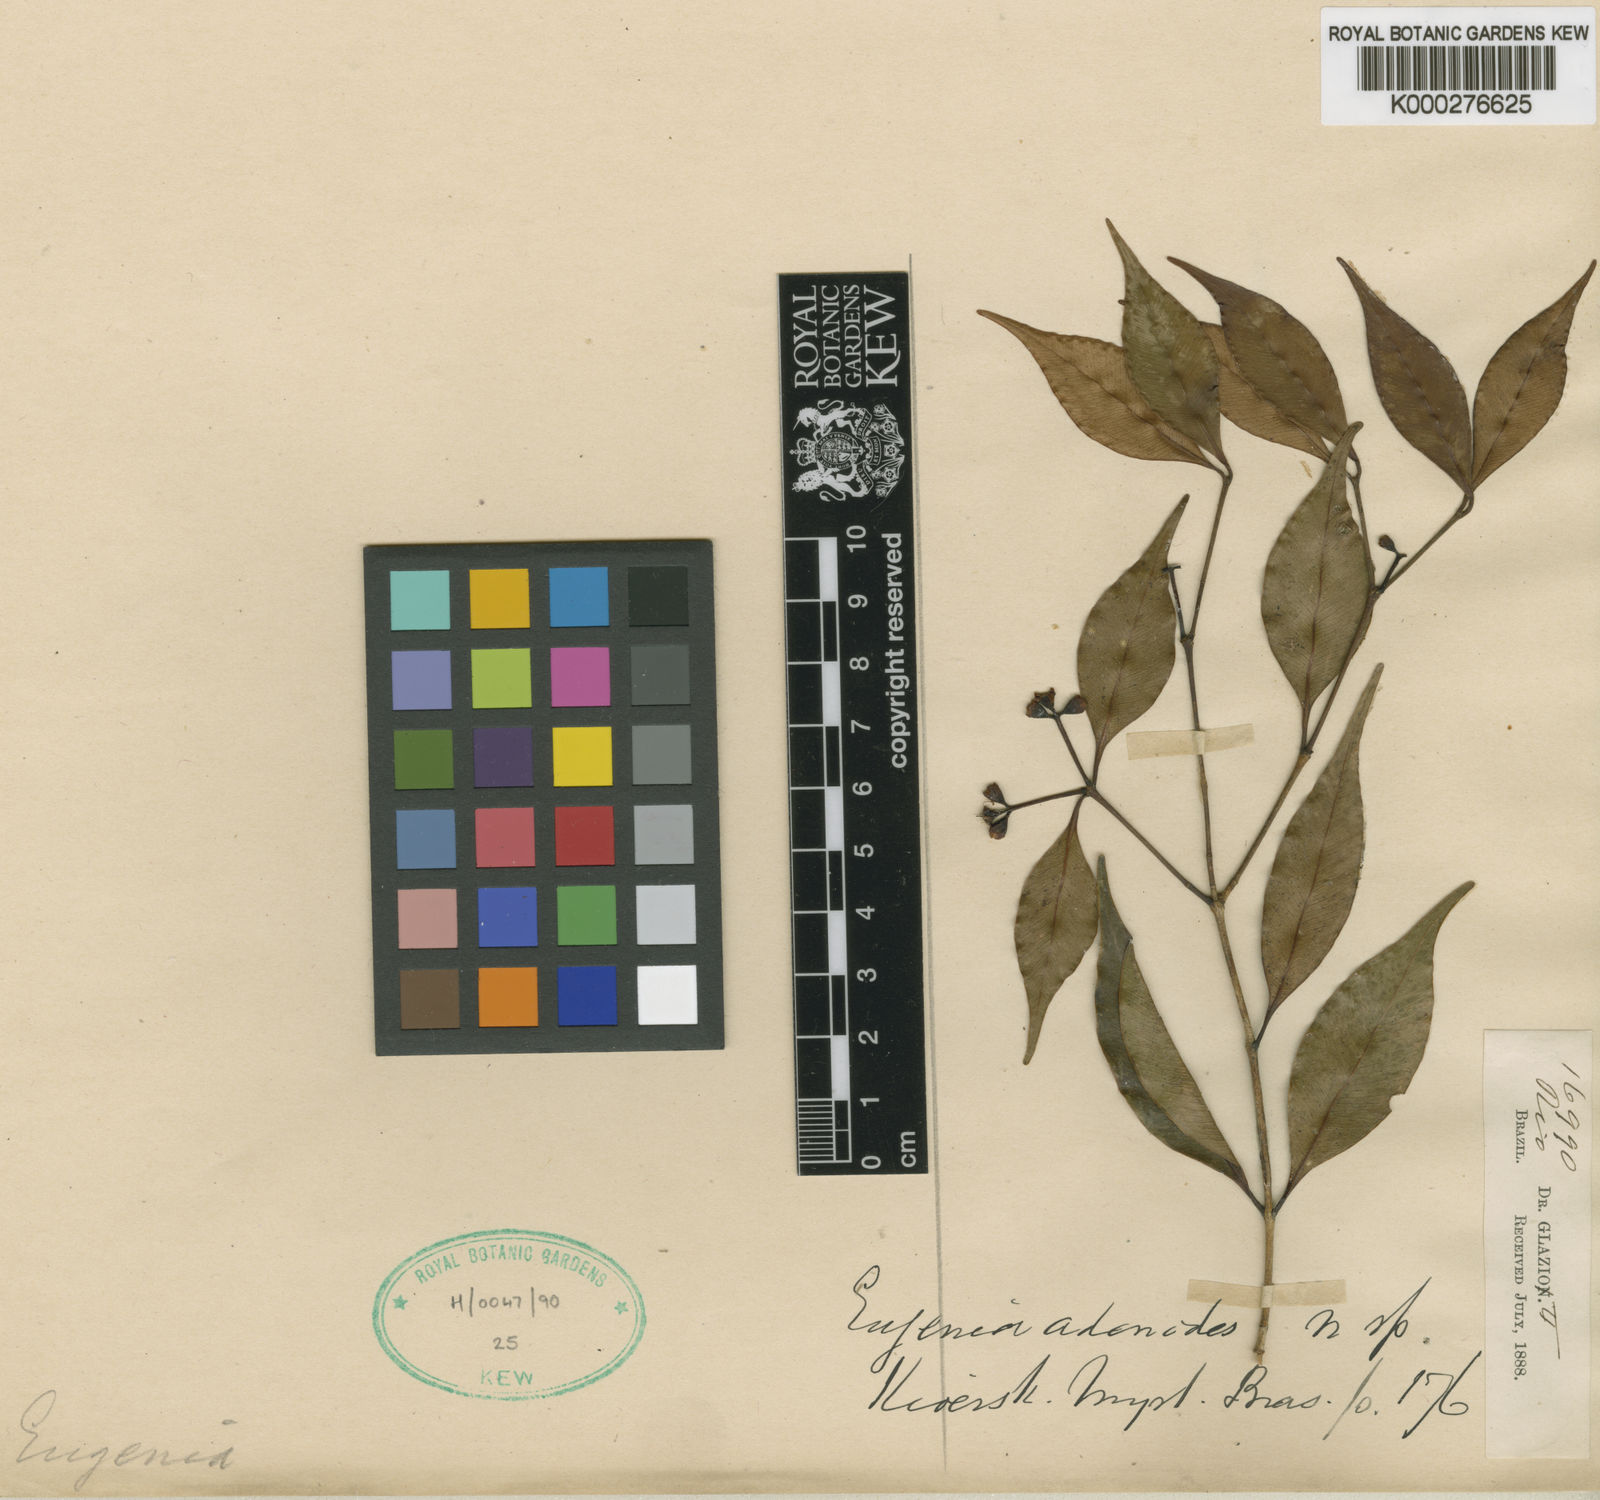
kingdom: Plantae
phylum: Tracheophyta
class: Magnoliopsida
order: Myrtales
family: Myrtaceae
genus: Plinia
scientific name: Plinia pumila
